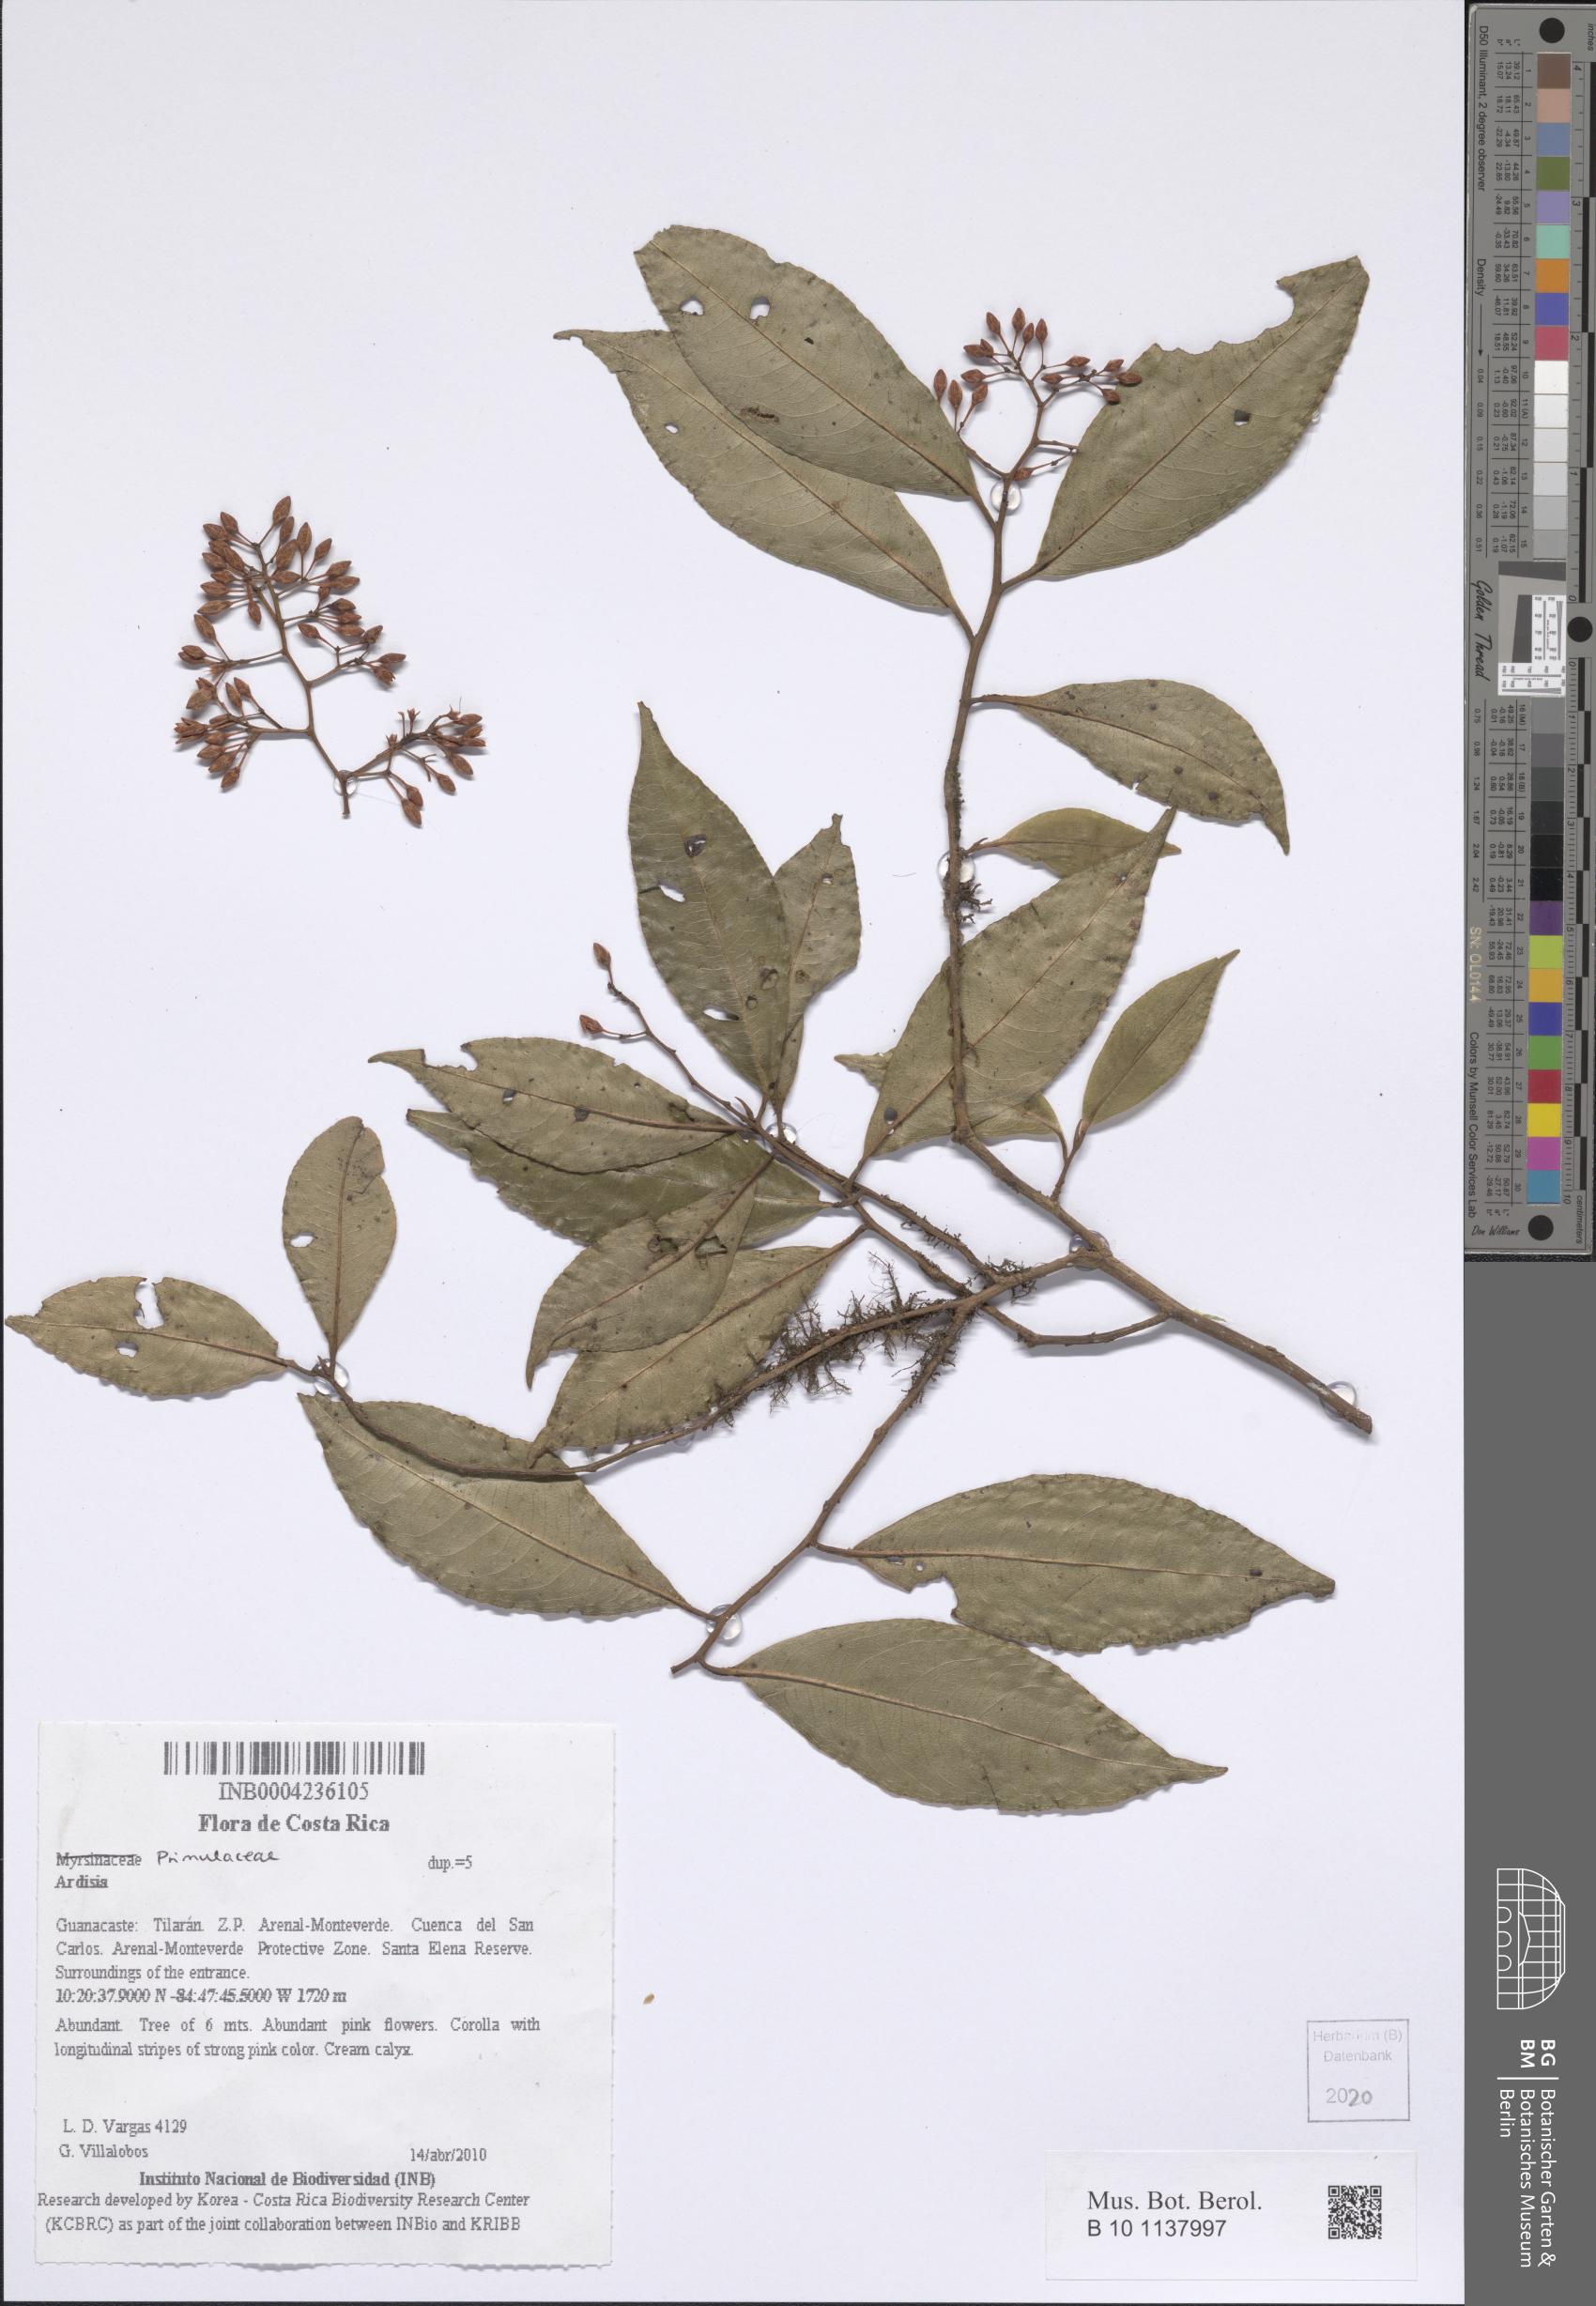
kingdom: Plantae
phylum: Tracheophyta
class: Magnoliopsida
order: Ericales
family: Primulaceae
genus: Ardisia
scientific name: Ardisia
